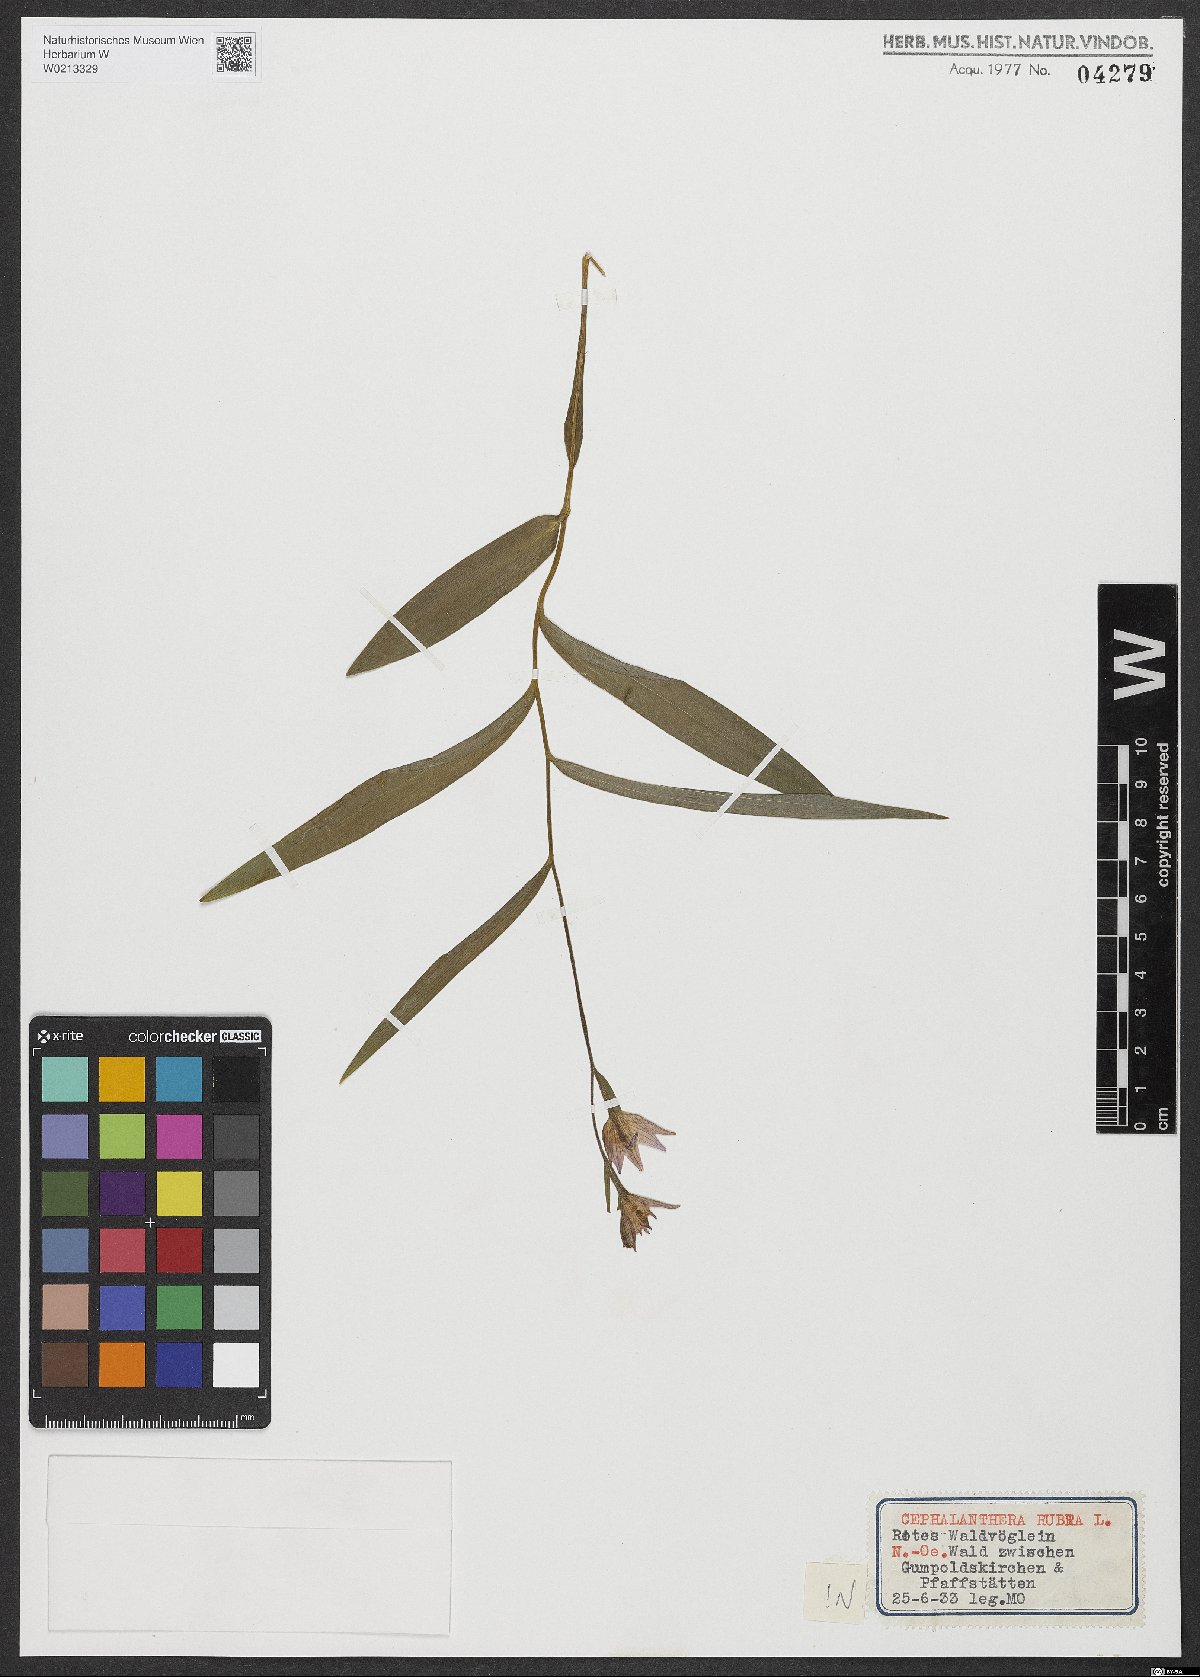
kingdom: Plantae
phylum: Tracheophyta
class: Liliopsida
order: Asparagales
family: Orchidaceae
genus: Cephalanthera
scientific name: Cephalanthera rubra
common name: Red helleborine
